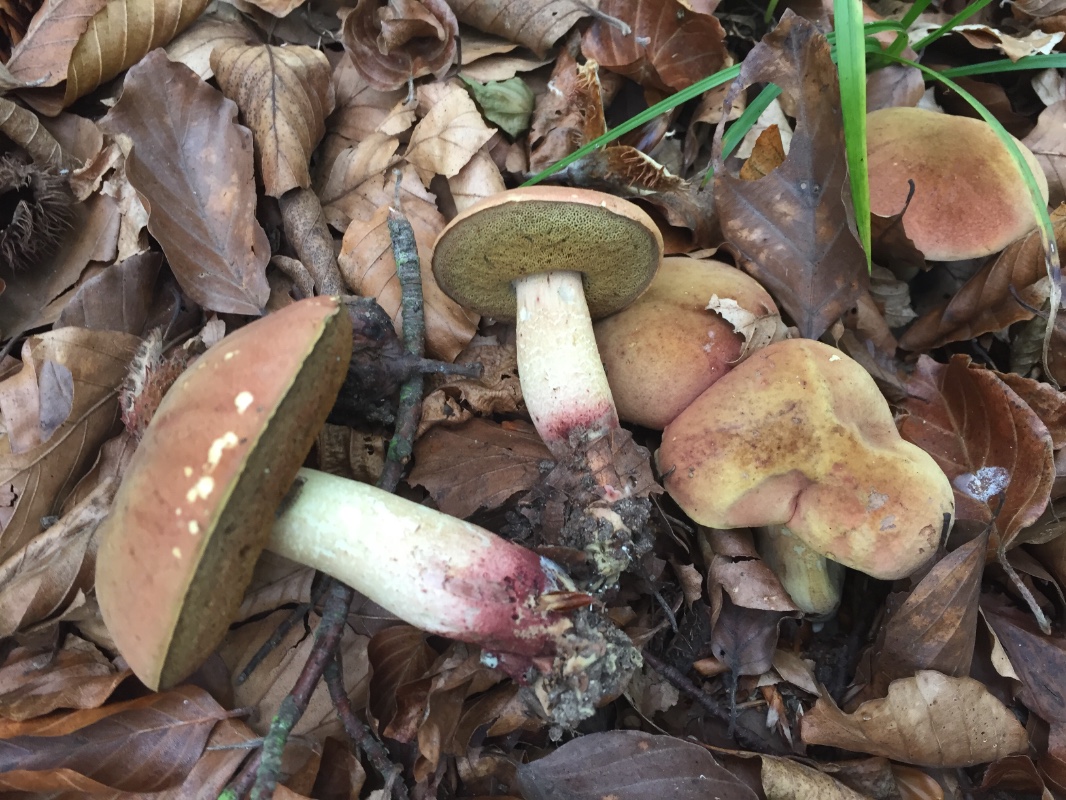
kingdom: Fungi
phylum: Basidiomycota
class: Agaricomycetes
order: Boletales
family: Boletaceae
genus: Suillellus
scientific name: Suillellus queletii
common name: glatstokket indigorørhat
